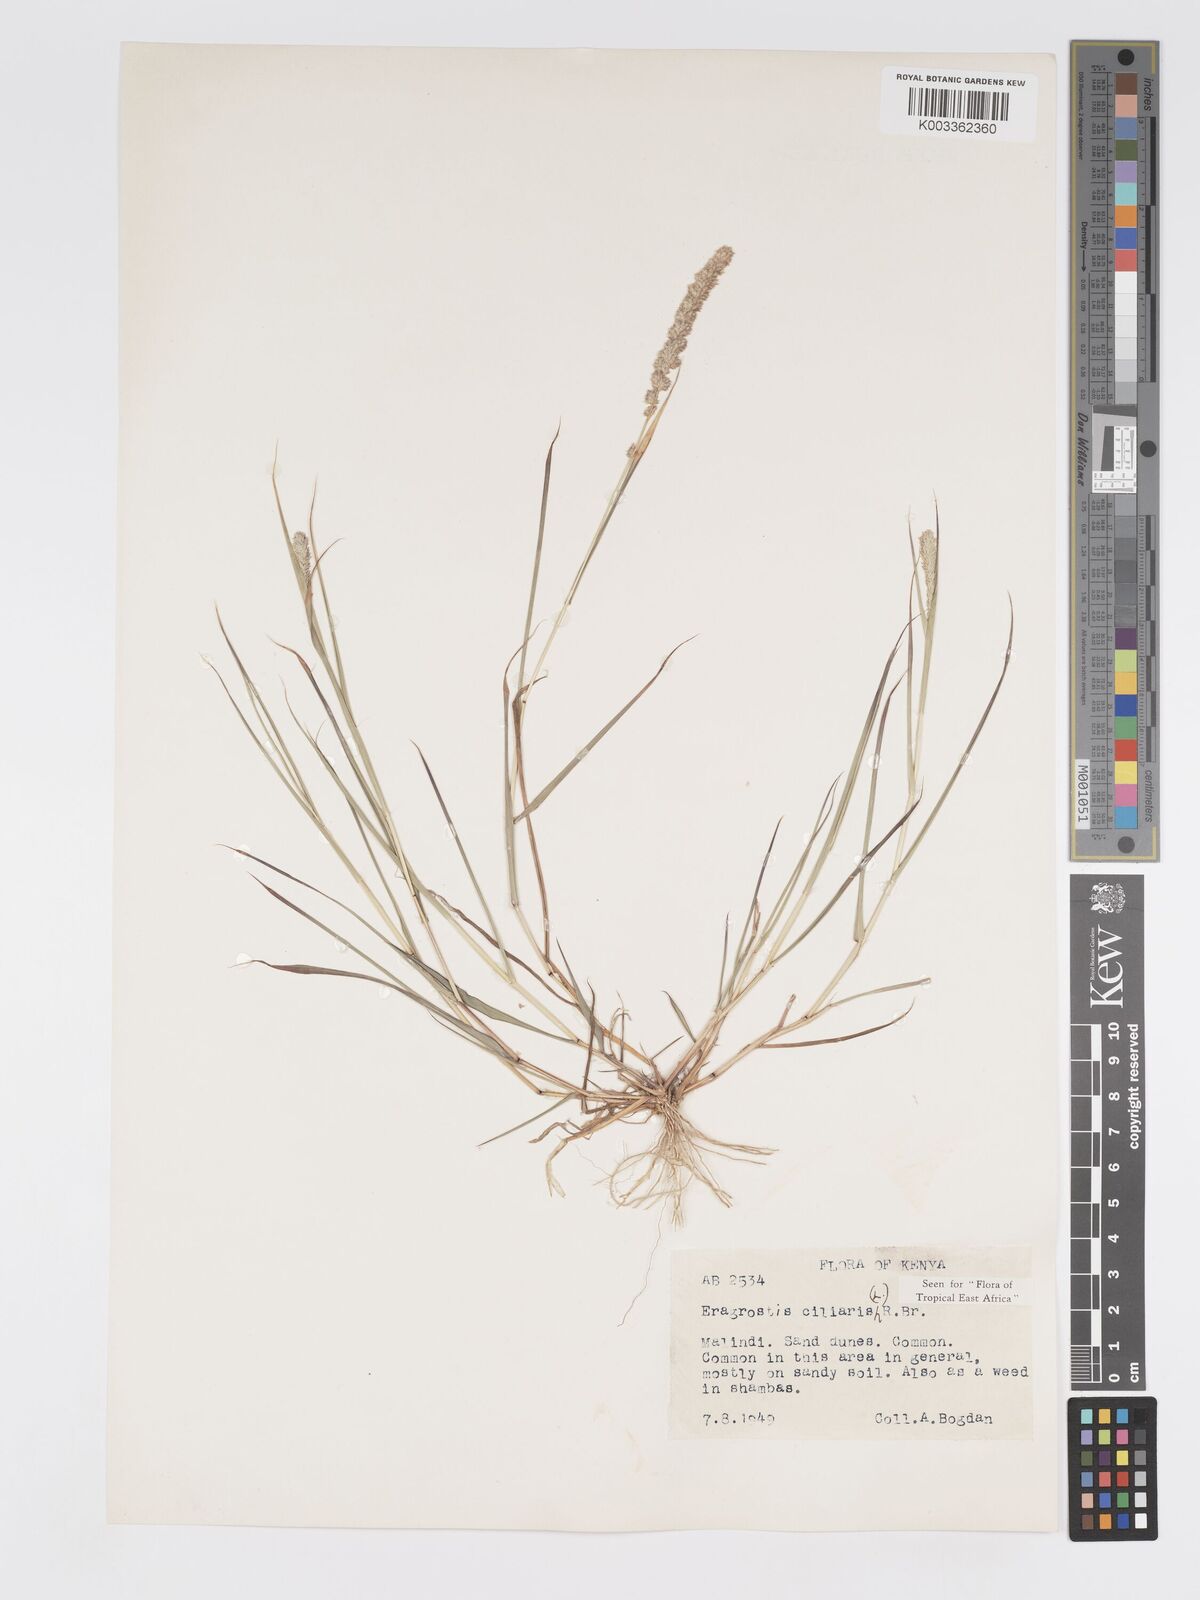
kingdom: Plantae
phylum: Tracheophyta
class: Liliopsida
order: Poales
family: Poaceae
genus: Eragrostis
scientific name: Eragrostis ciliaris
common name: Gophertail lovegrass
